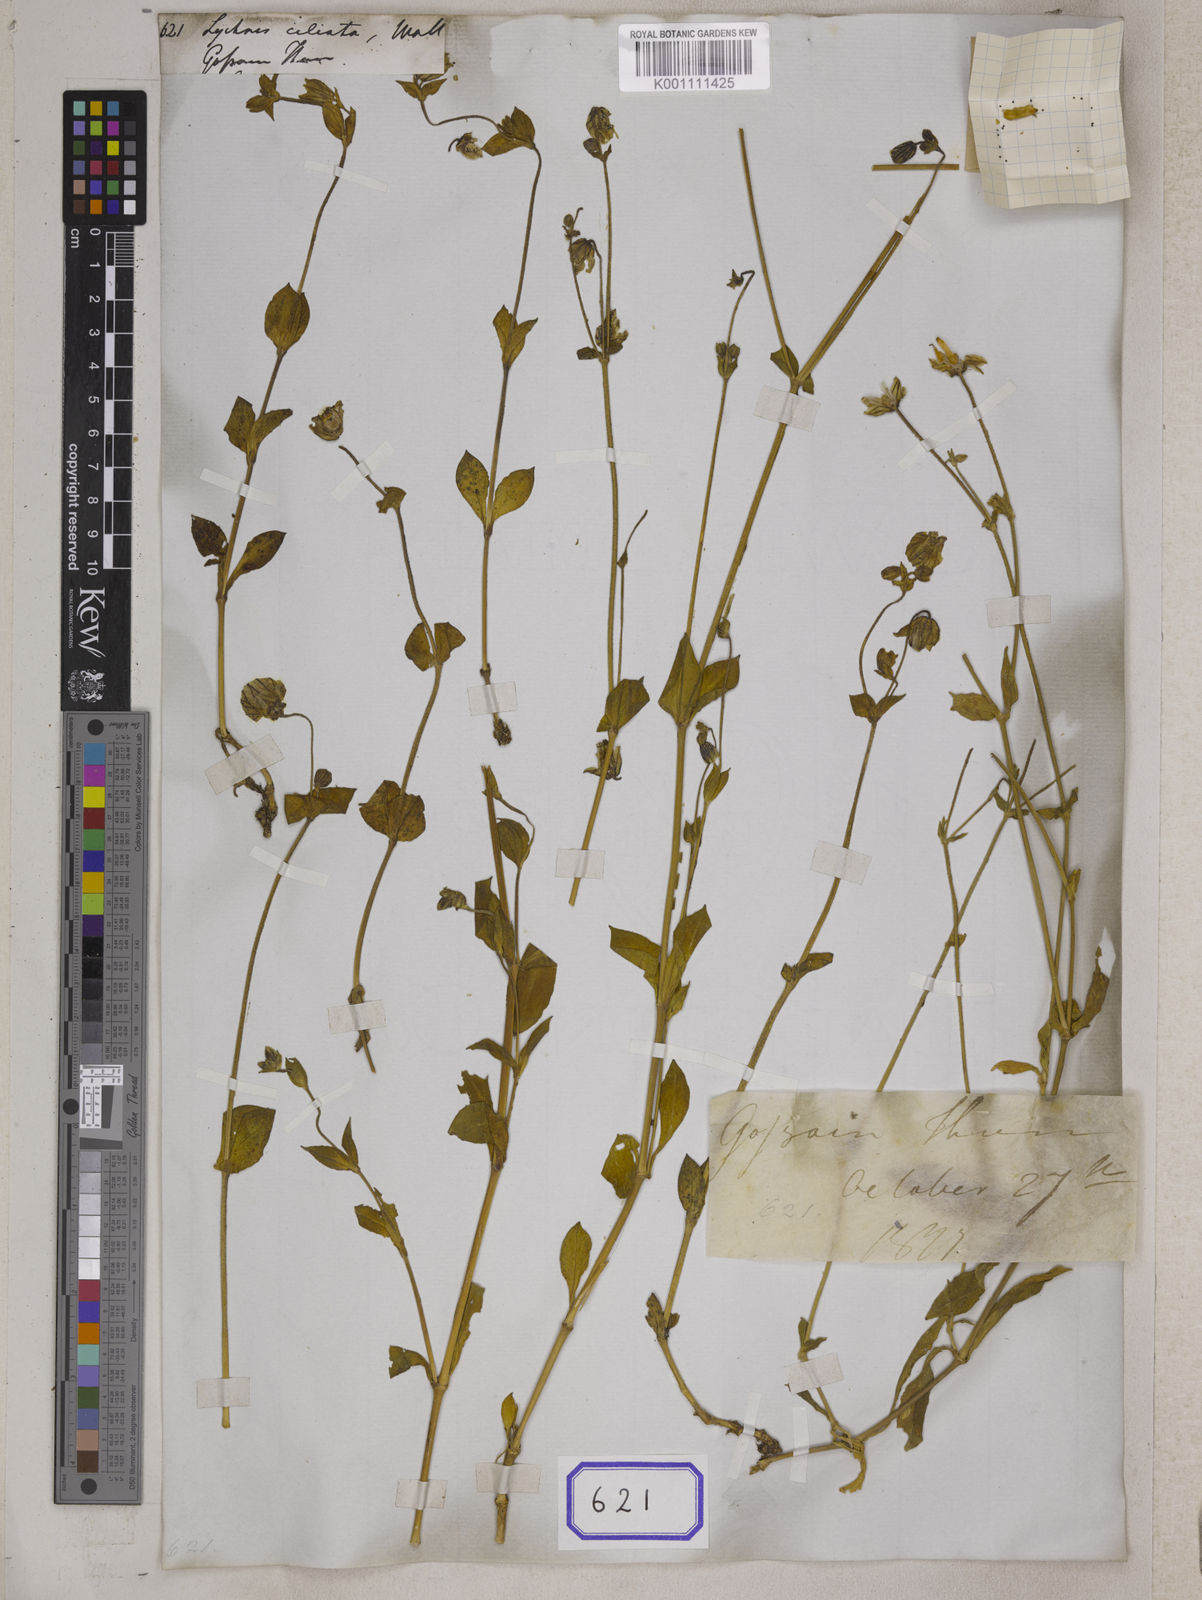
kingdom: Plantae
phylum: Tracheophyta
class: Magnoliopsida
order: Caryophyllales
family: Caryophyllaceae
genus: Silene
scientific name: Silene indica
